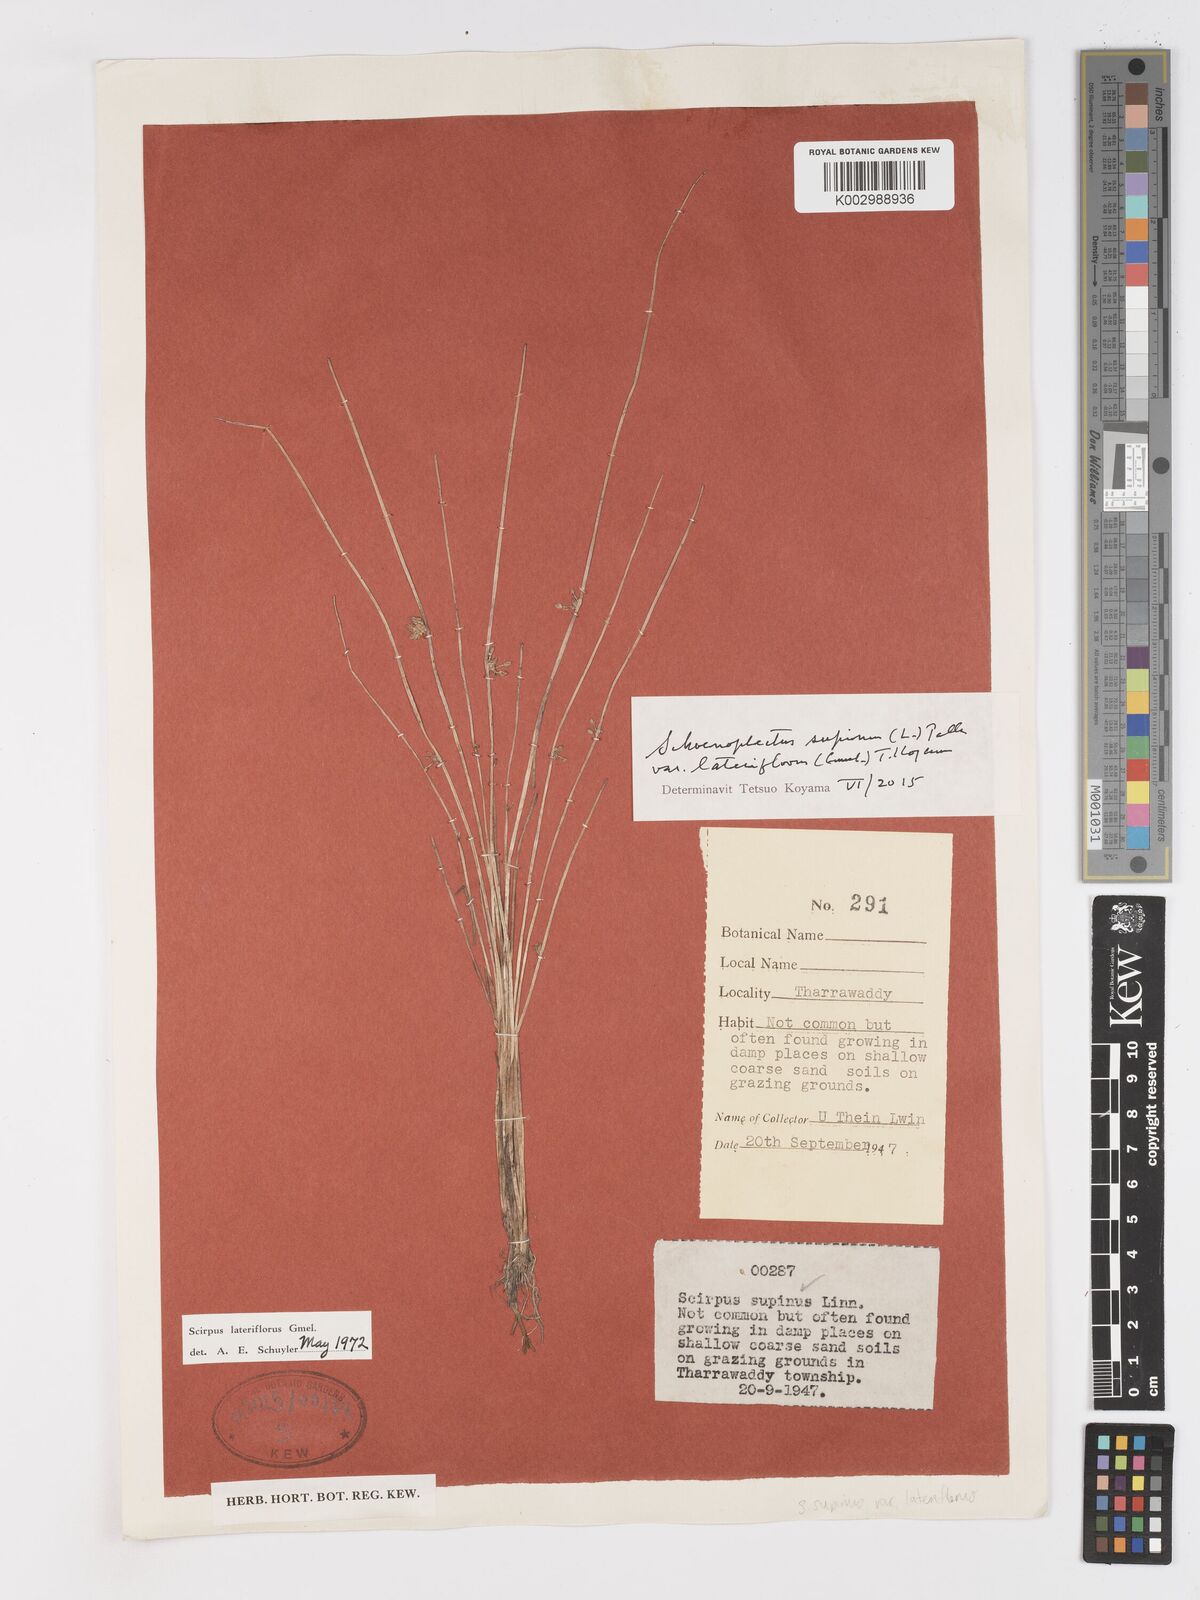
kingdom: Plantae
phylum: Tracheophyta
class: Liliopsida
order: Poales
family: Cyperaceae
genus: Schoenoplectiella
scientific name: Schoenoplectiella lateriflora
